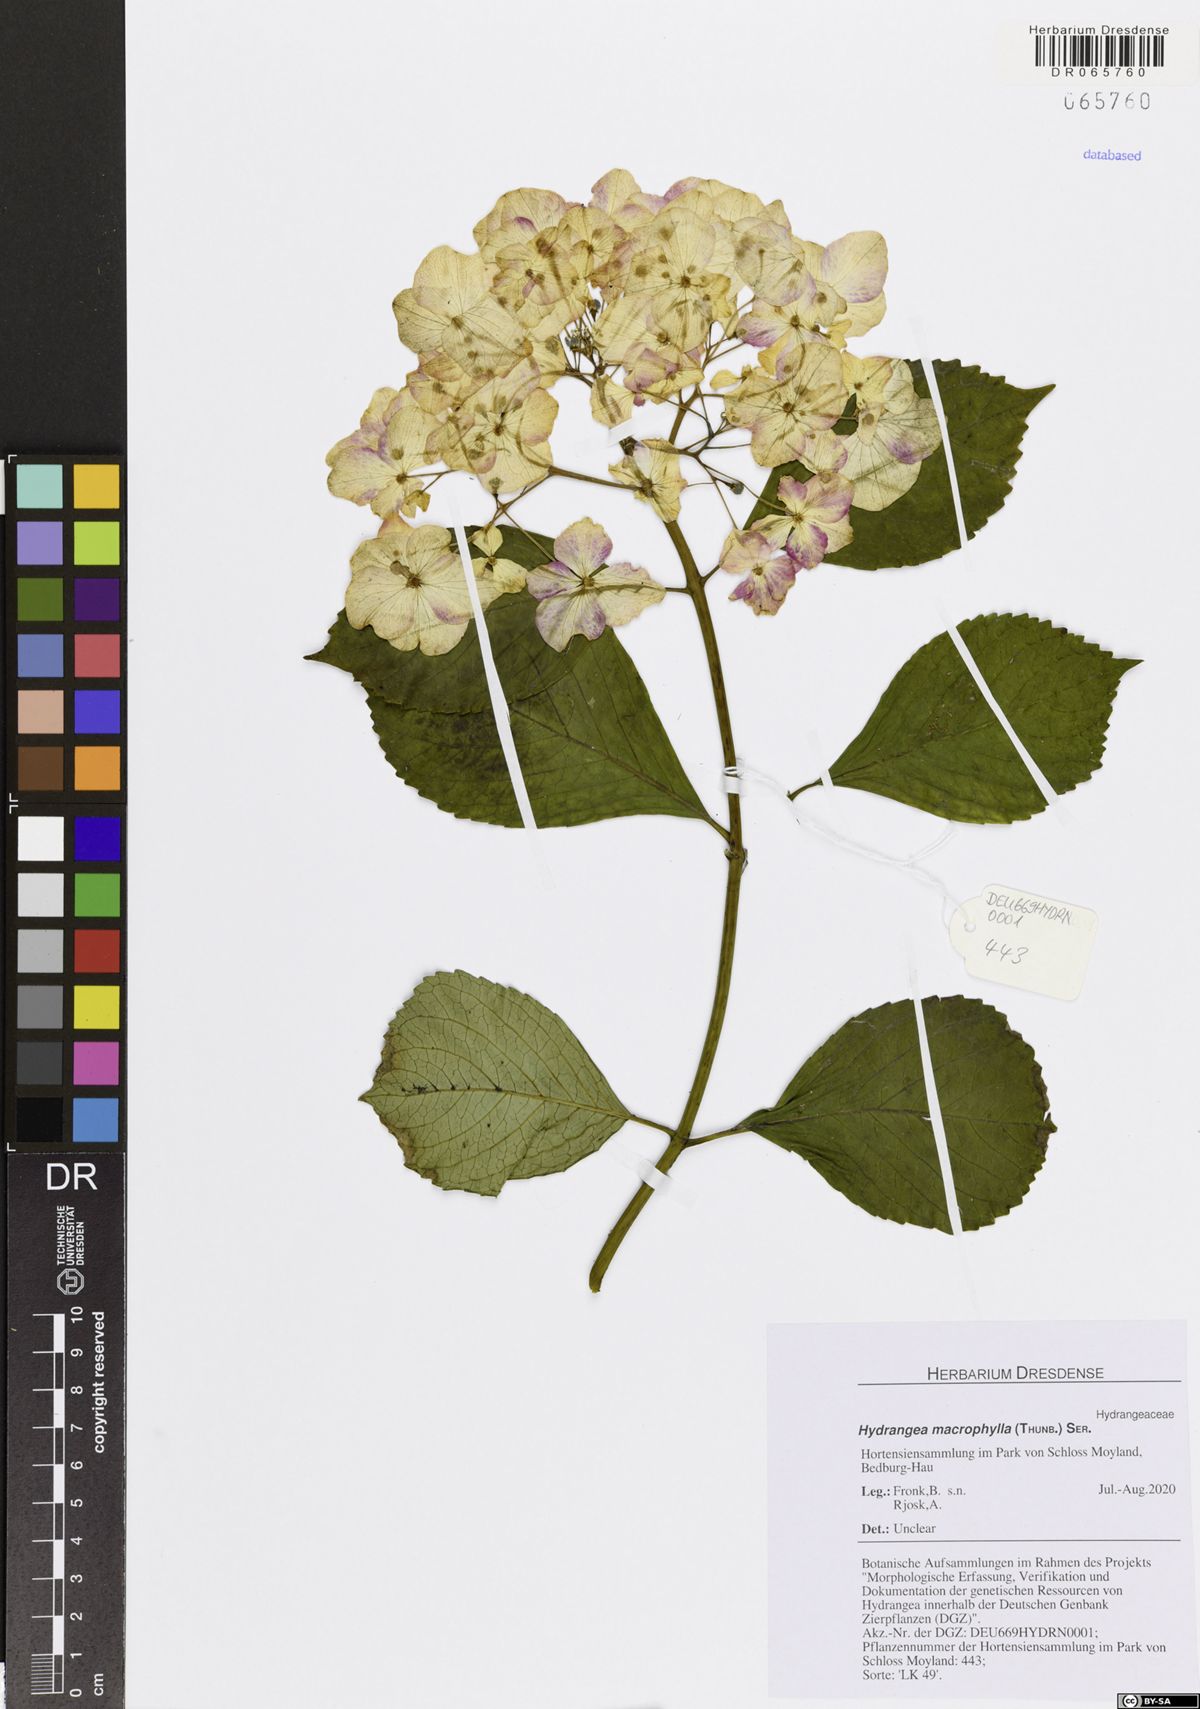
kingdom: Plantae
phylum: Tracheophyta
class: Magnoliopsida
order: Cornales
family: Hydrangeaceae
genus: Hydrangea
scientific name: Hydrangea macrophylla
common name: Hydrangea
